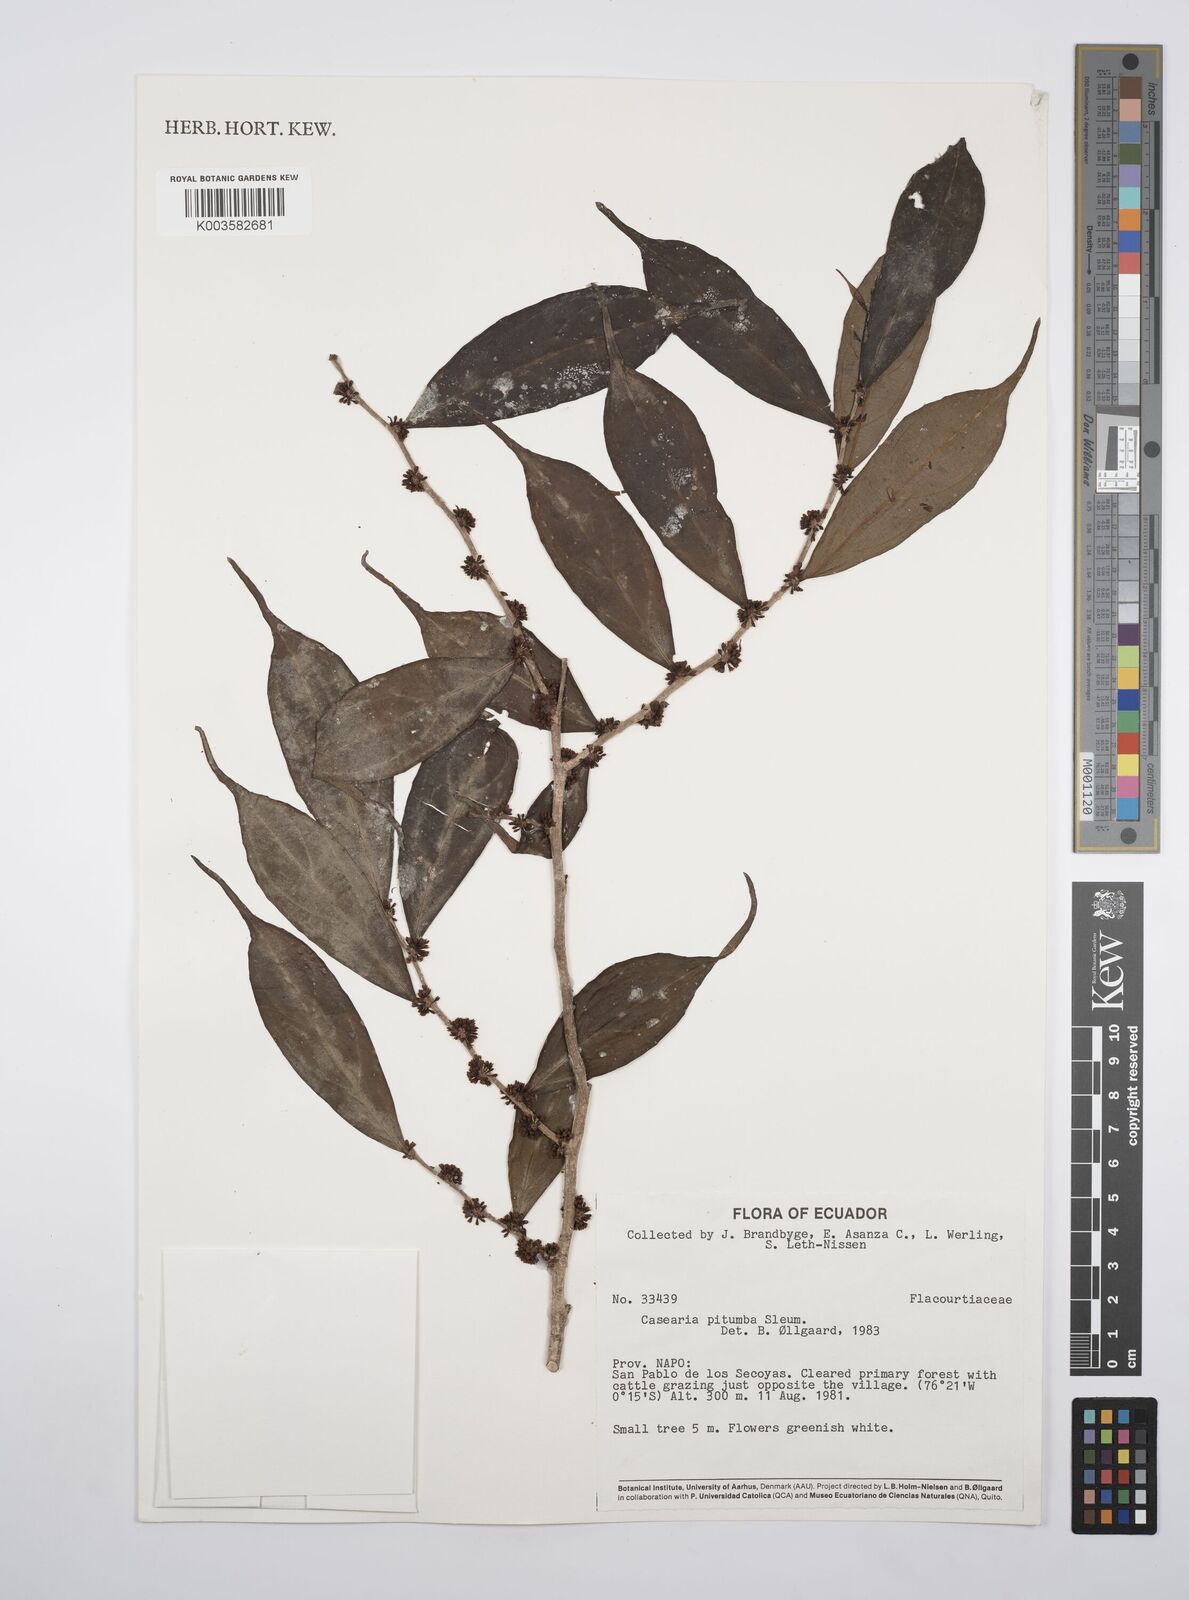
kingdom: Plantae
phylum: Tracheophyta
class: Magnoliopsida
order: Malpighiales
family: Salicaceae
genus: Casearia
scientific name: Casearia pitumba
